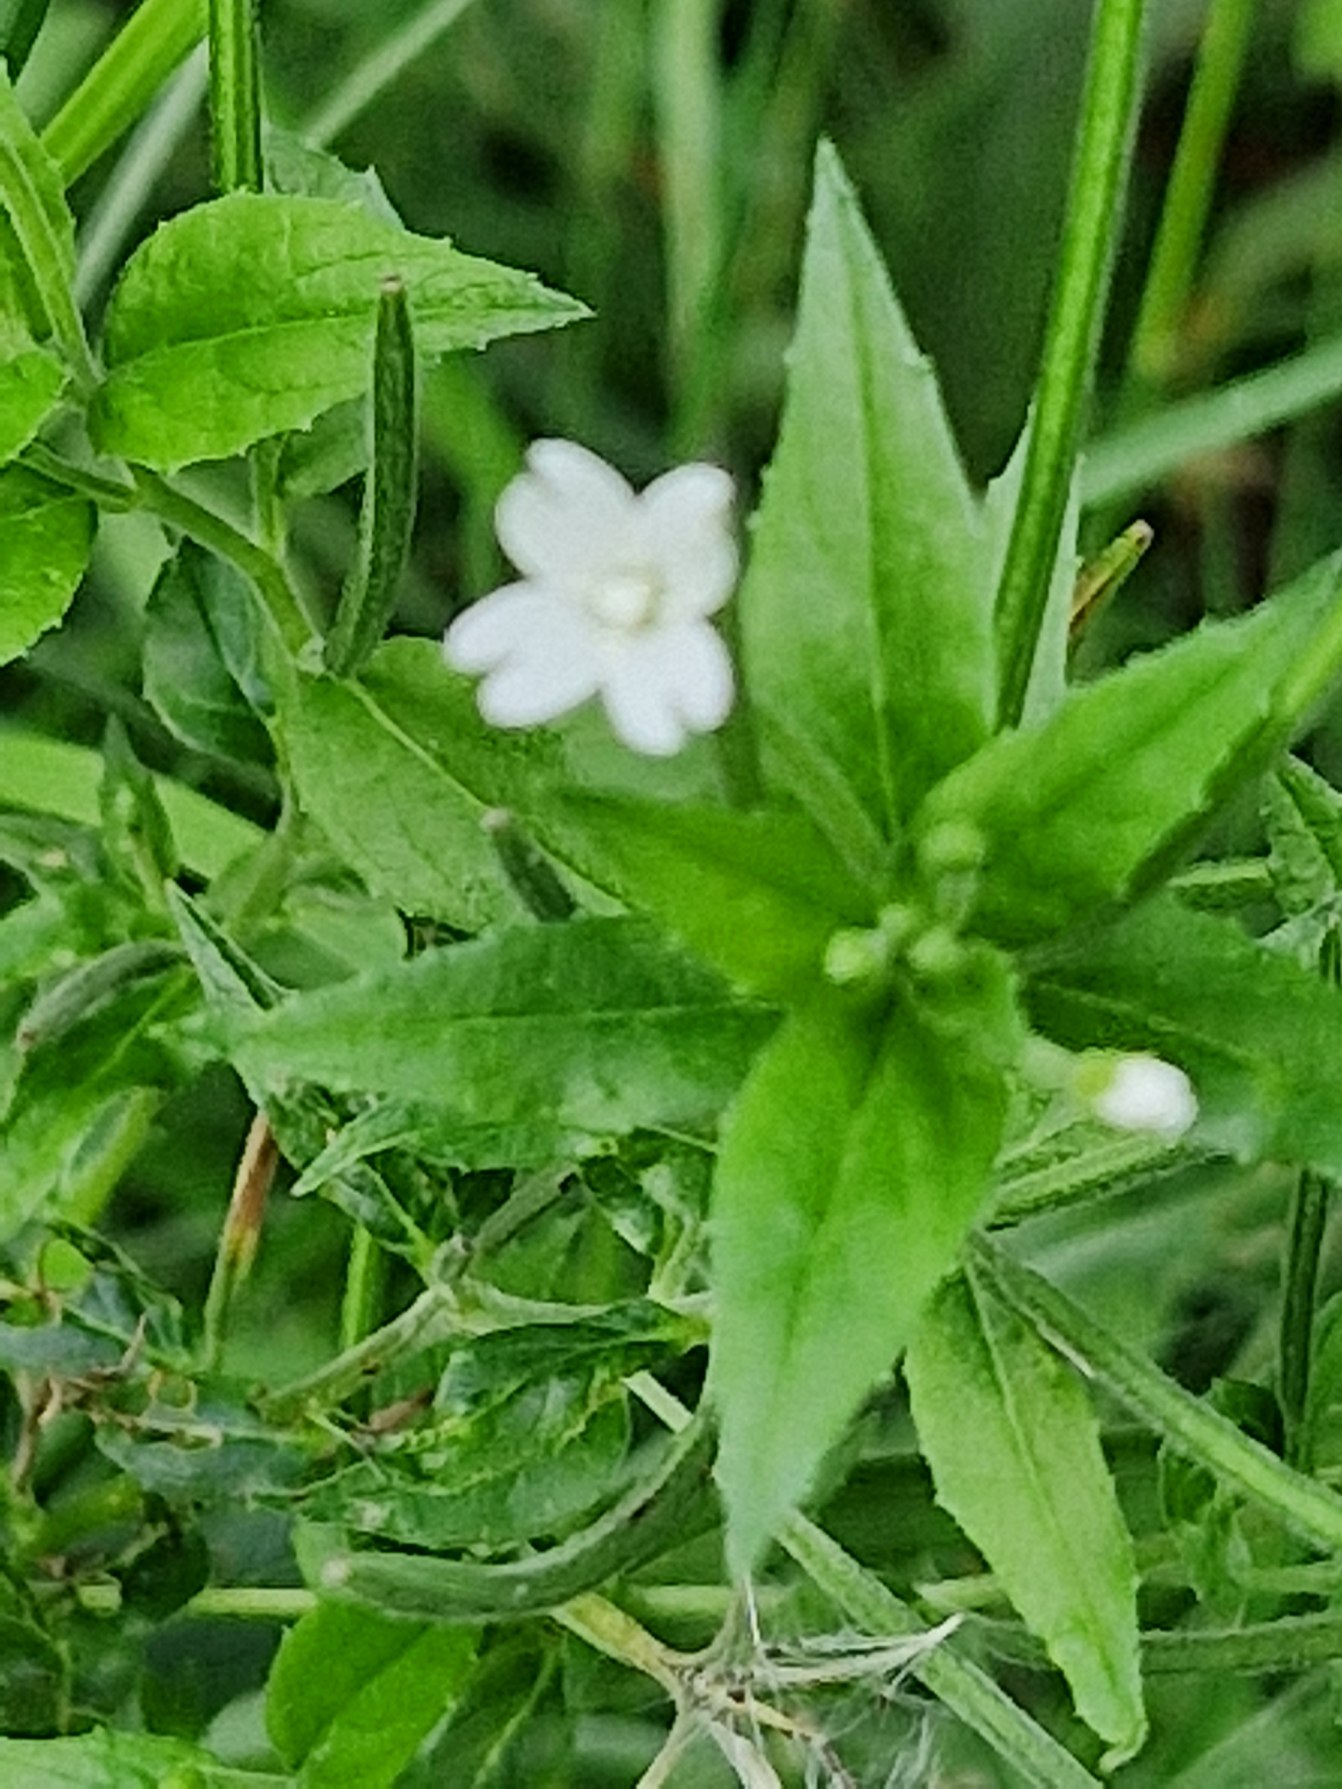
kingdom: Plantae
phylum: Tracheophyta
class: Magnoliopsida
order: Myrtales
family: Onagraceae
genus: Epilobium
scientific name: Epilobium ciliatum
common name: Kirtlet dueurt
